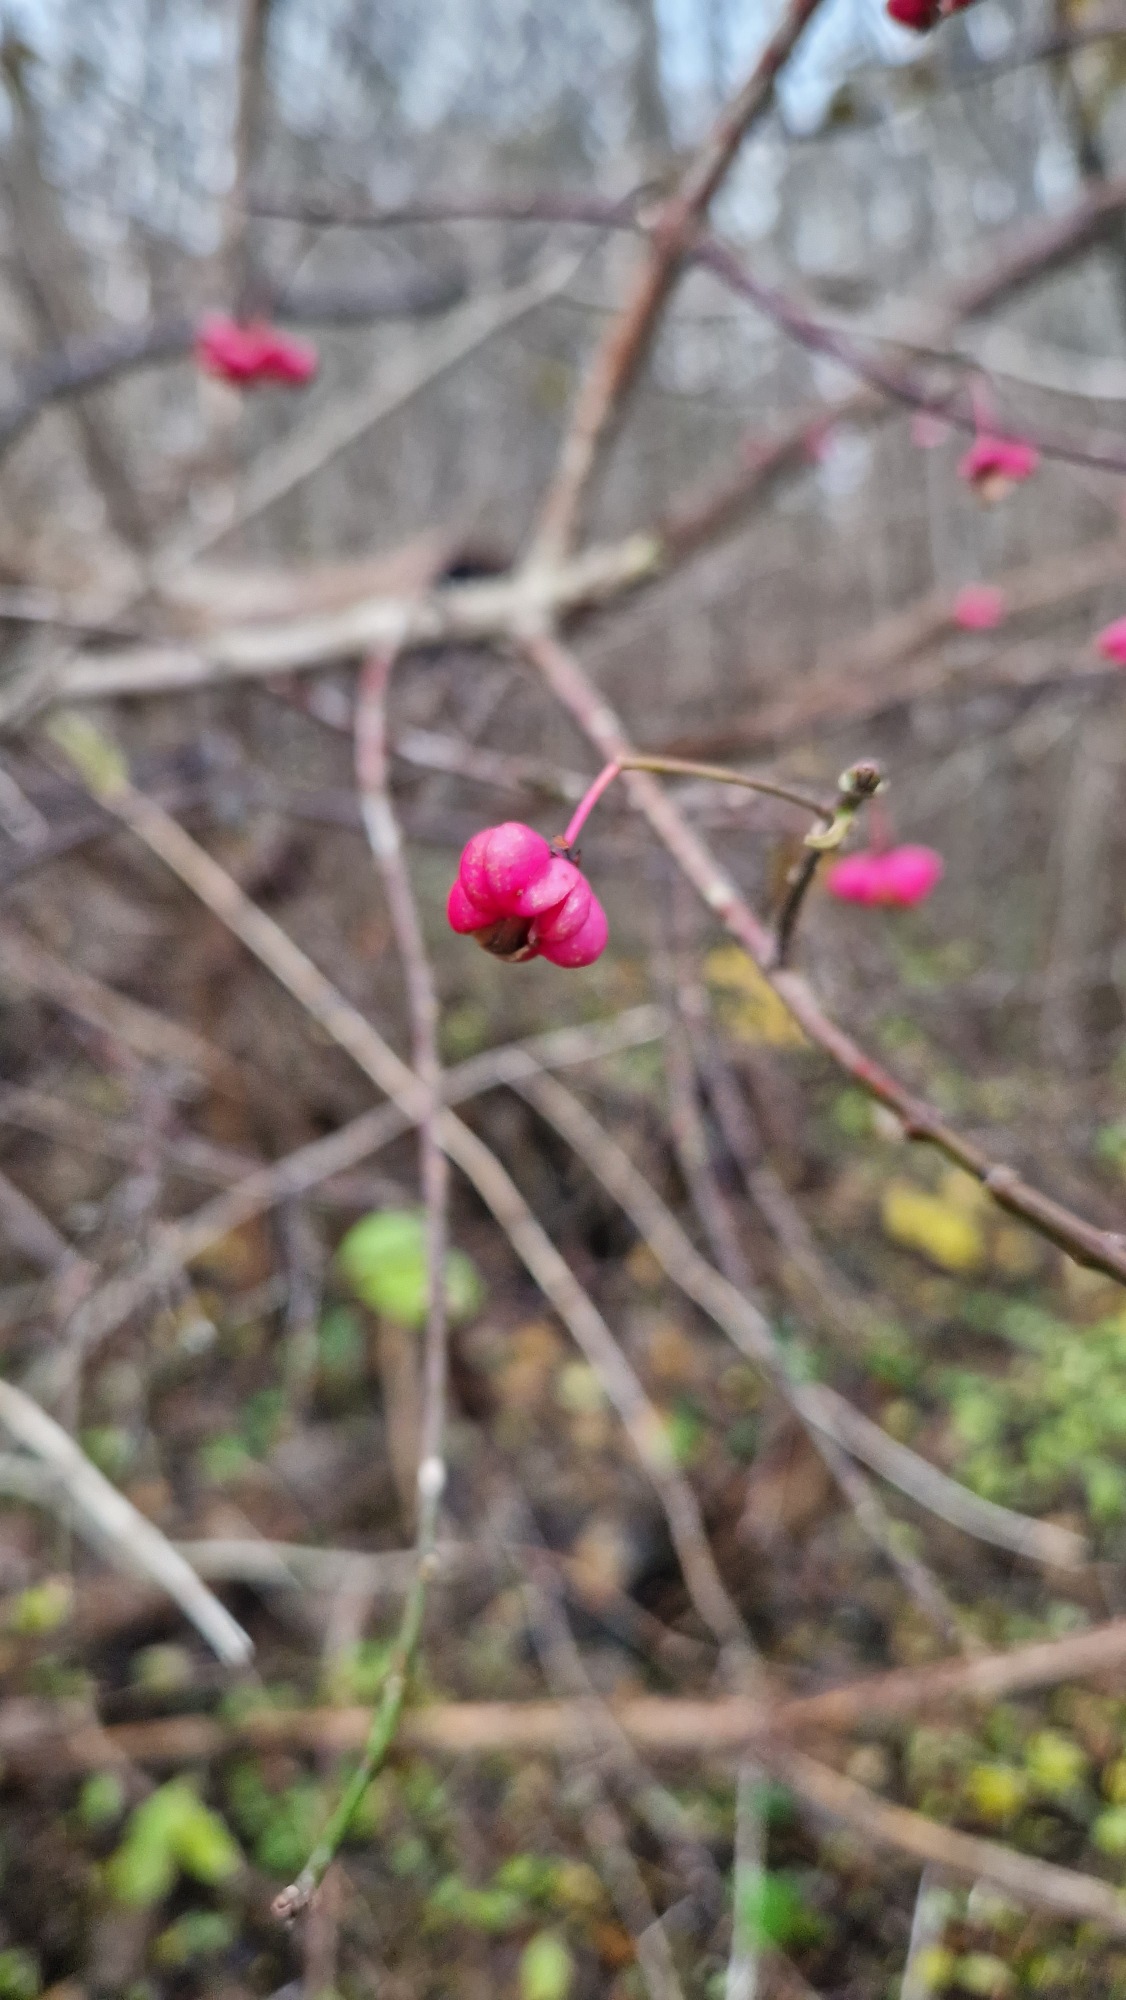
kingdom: Plantae
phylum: Tracheophyta
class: Magnoliopsida
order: Celastrales
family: Celastraceae
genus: Euonymus
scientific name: Euonymus europaeus
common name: Benved
